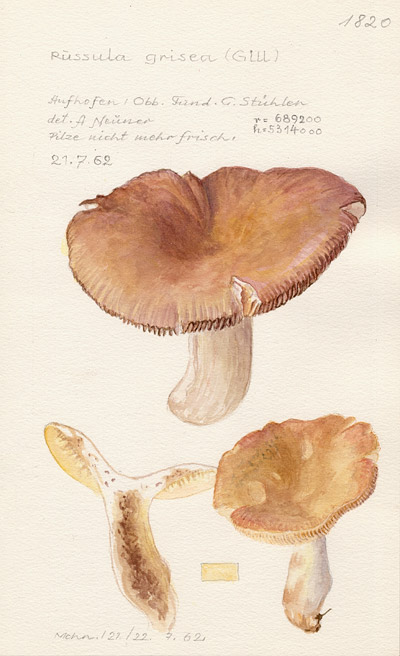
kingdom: Fungi
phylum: Basidiomycota
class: Agaricomycetes
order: Russulales
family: Russulaceae
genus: Russula
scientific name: Russula grisea
